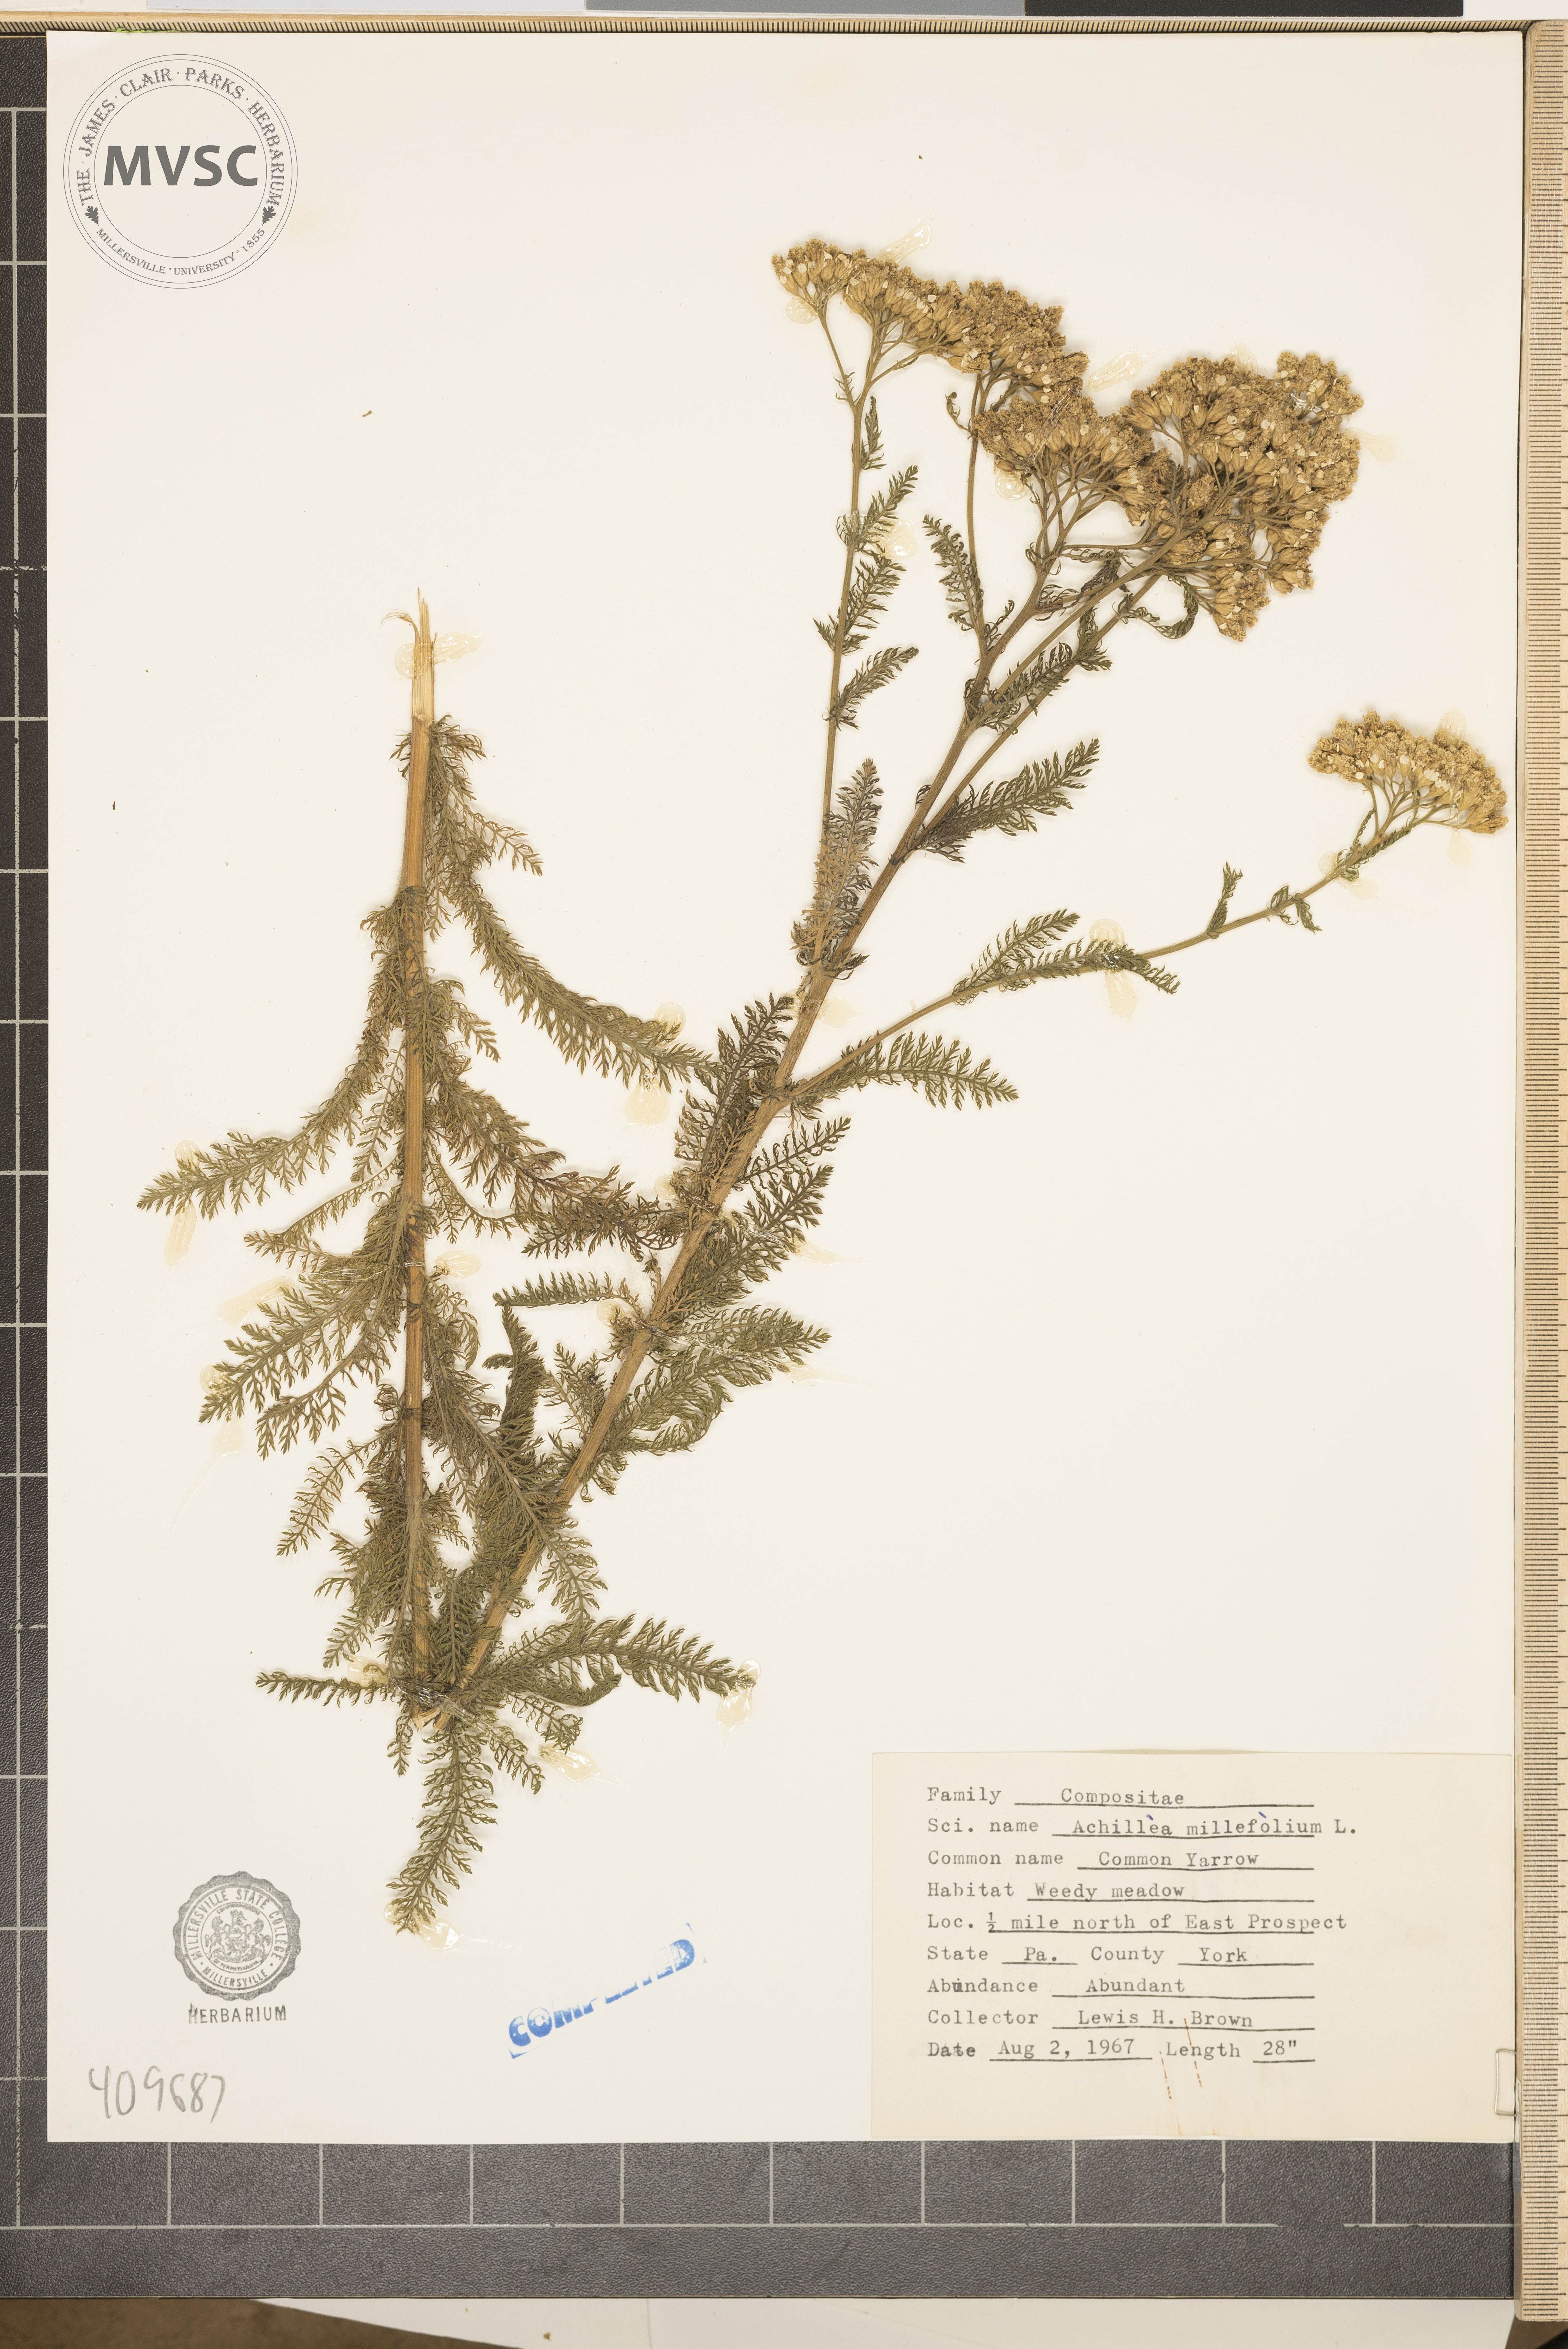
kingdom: Plantae
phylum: Tracheophyta
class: Magnoliopsida
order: Asterales
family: Asteraceae
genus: Achillea
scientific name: Achillea millefolium
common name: Yarrow
